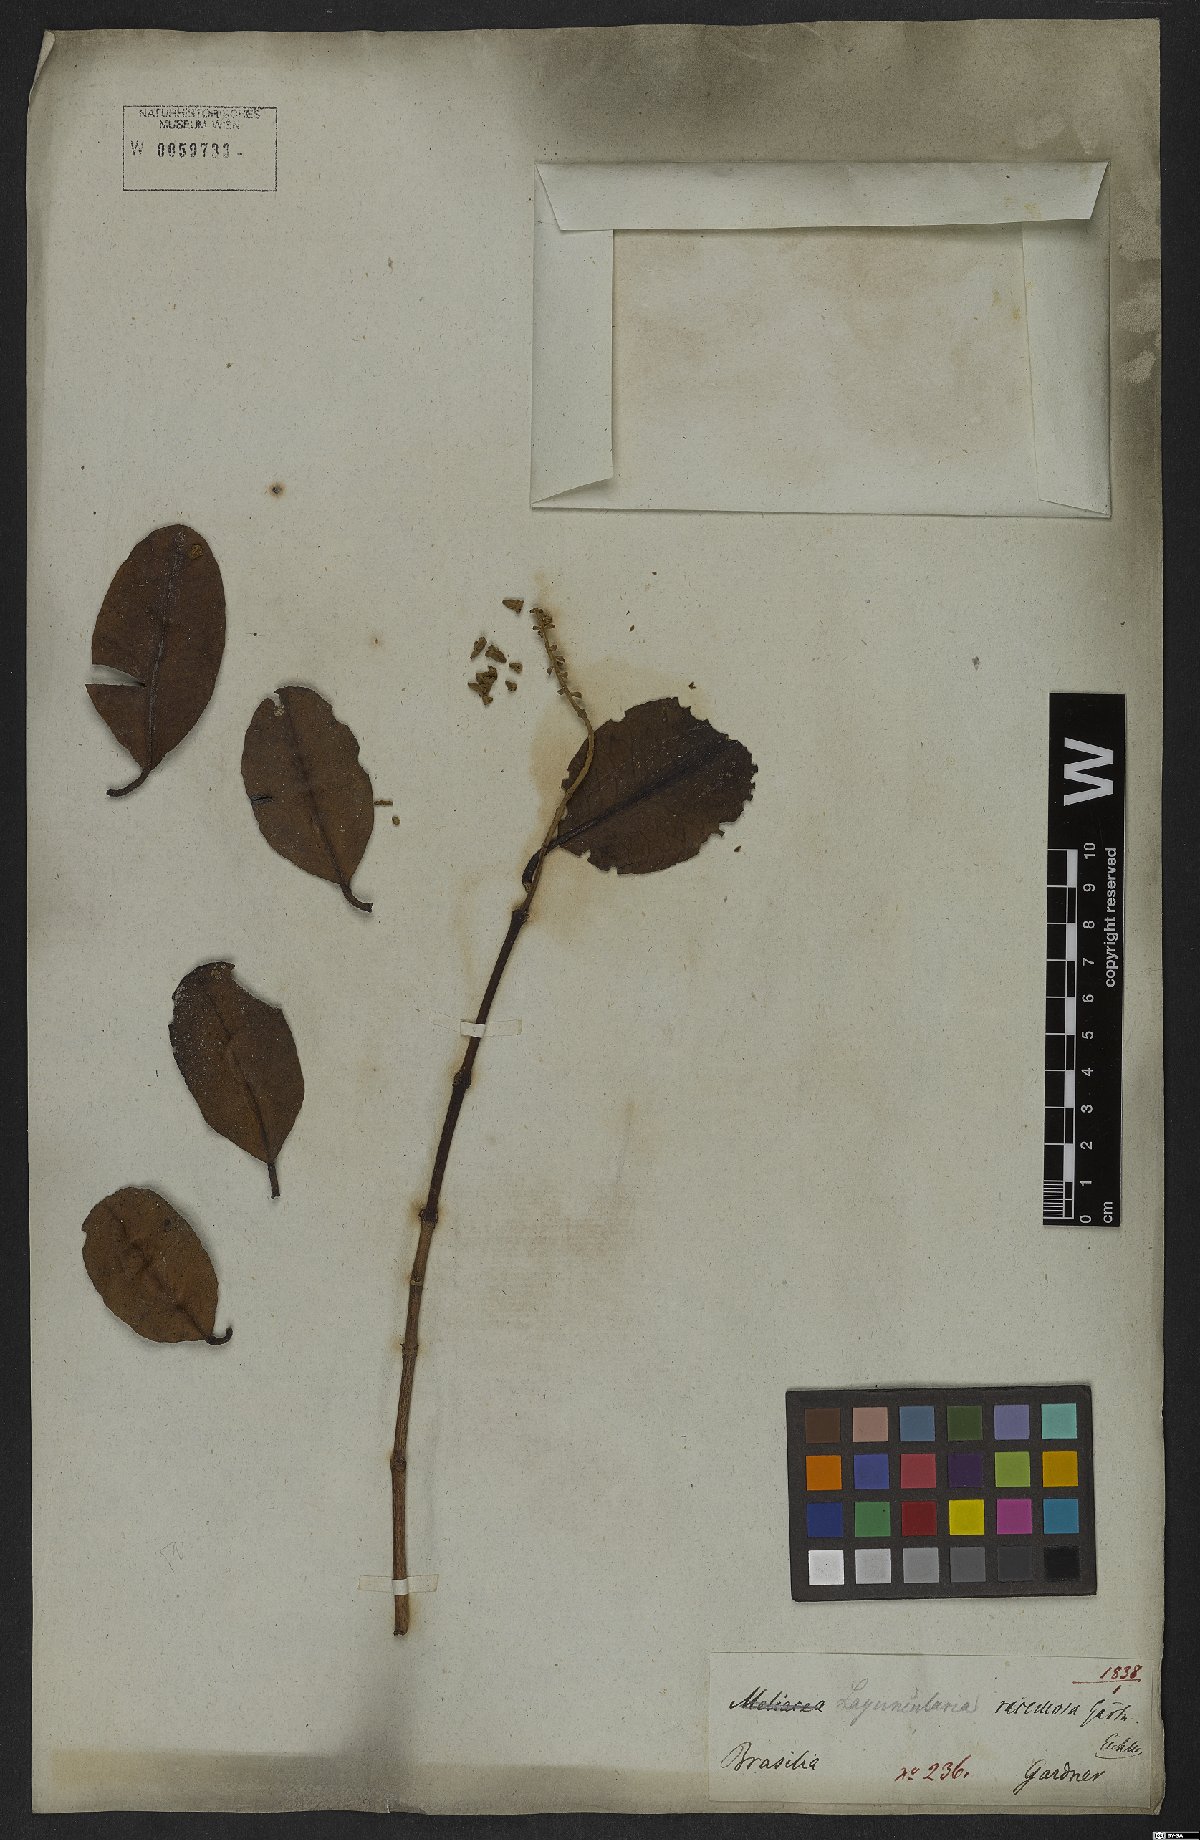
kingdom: Plantae
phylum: Tracheophyta
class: Magnoliopsida
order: Myrtales
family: Combretaceae
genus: Laguncularia
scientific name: Laguncularia racemosa
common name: White mangrove
